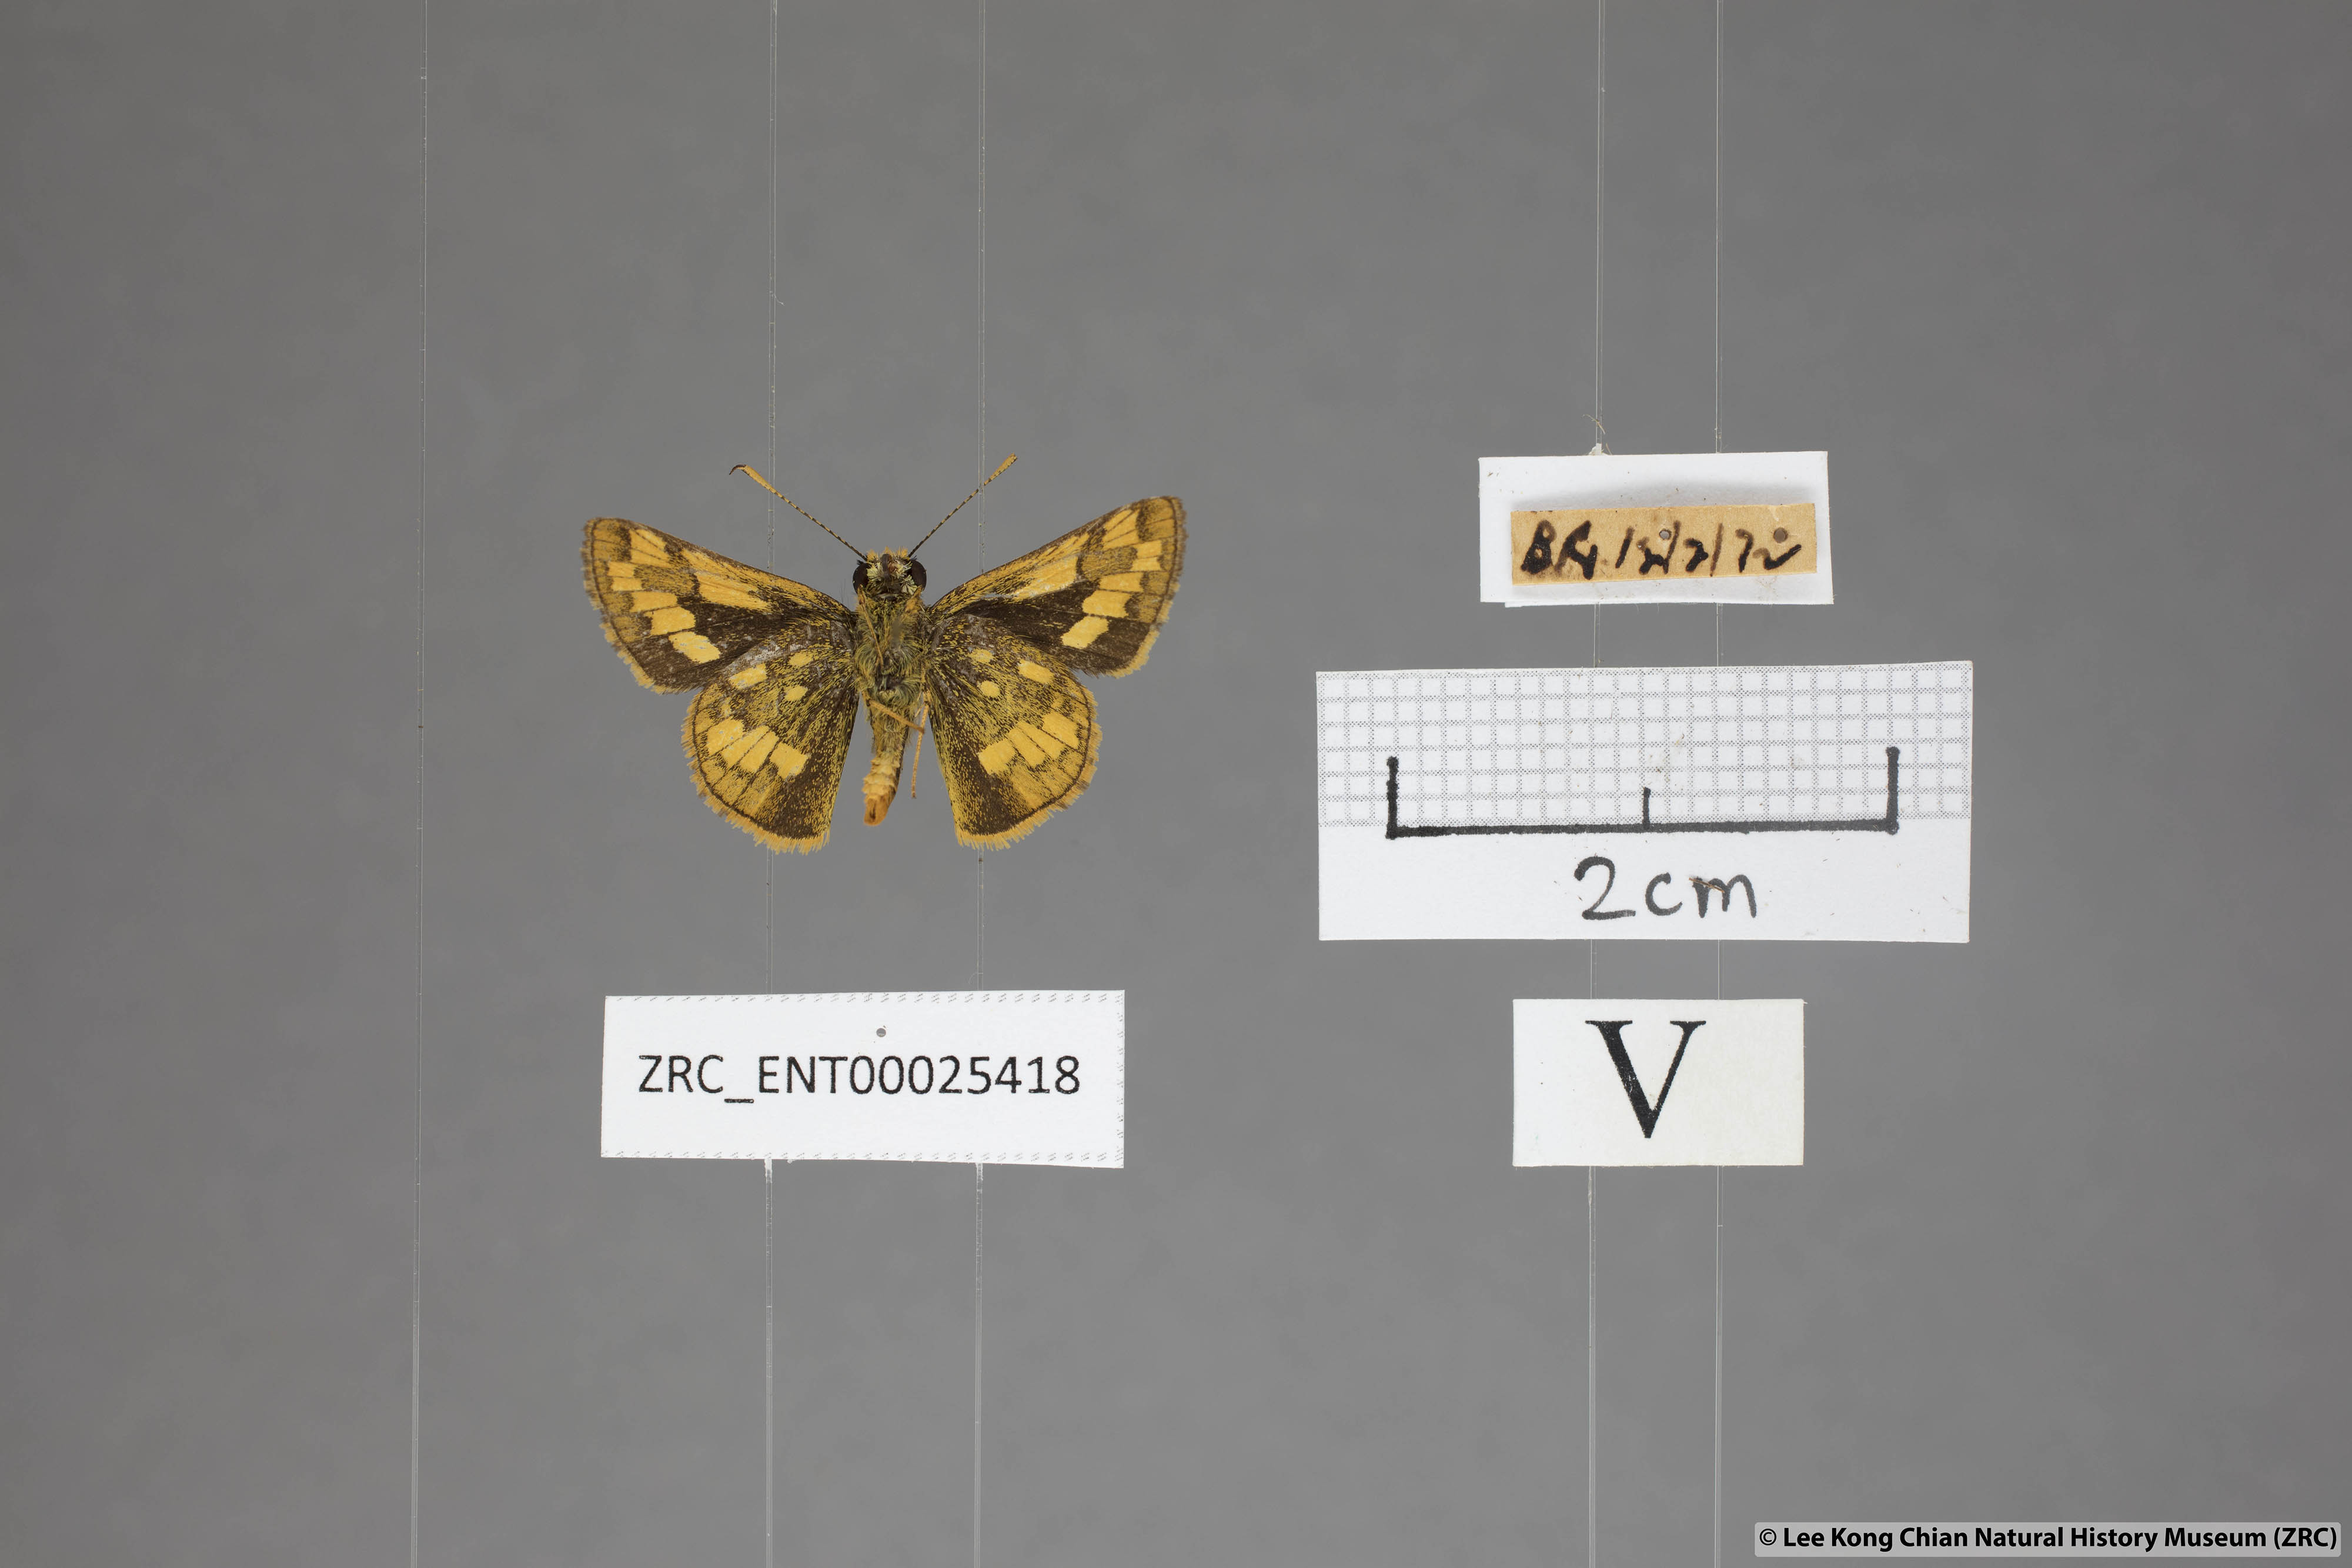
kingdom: Animalia
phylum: Arthropoda
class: Insecta
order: Lepidoptera
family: Hesperiidae
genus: Potanthus
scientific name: Potanthus omaha
